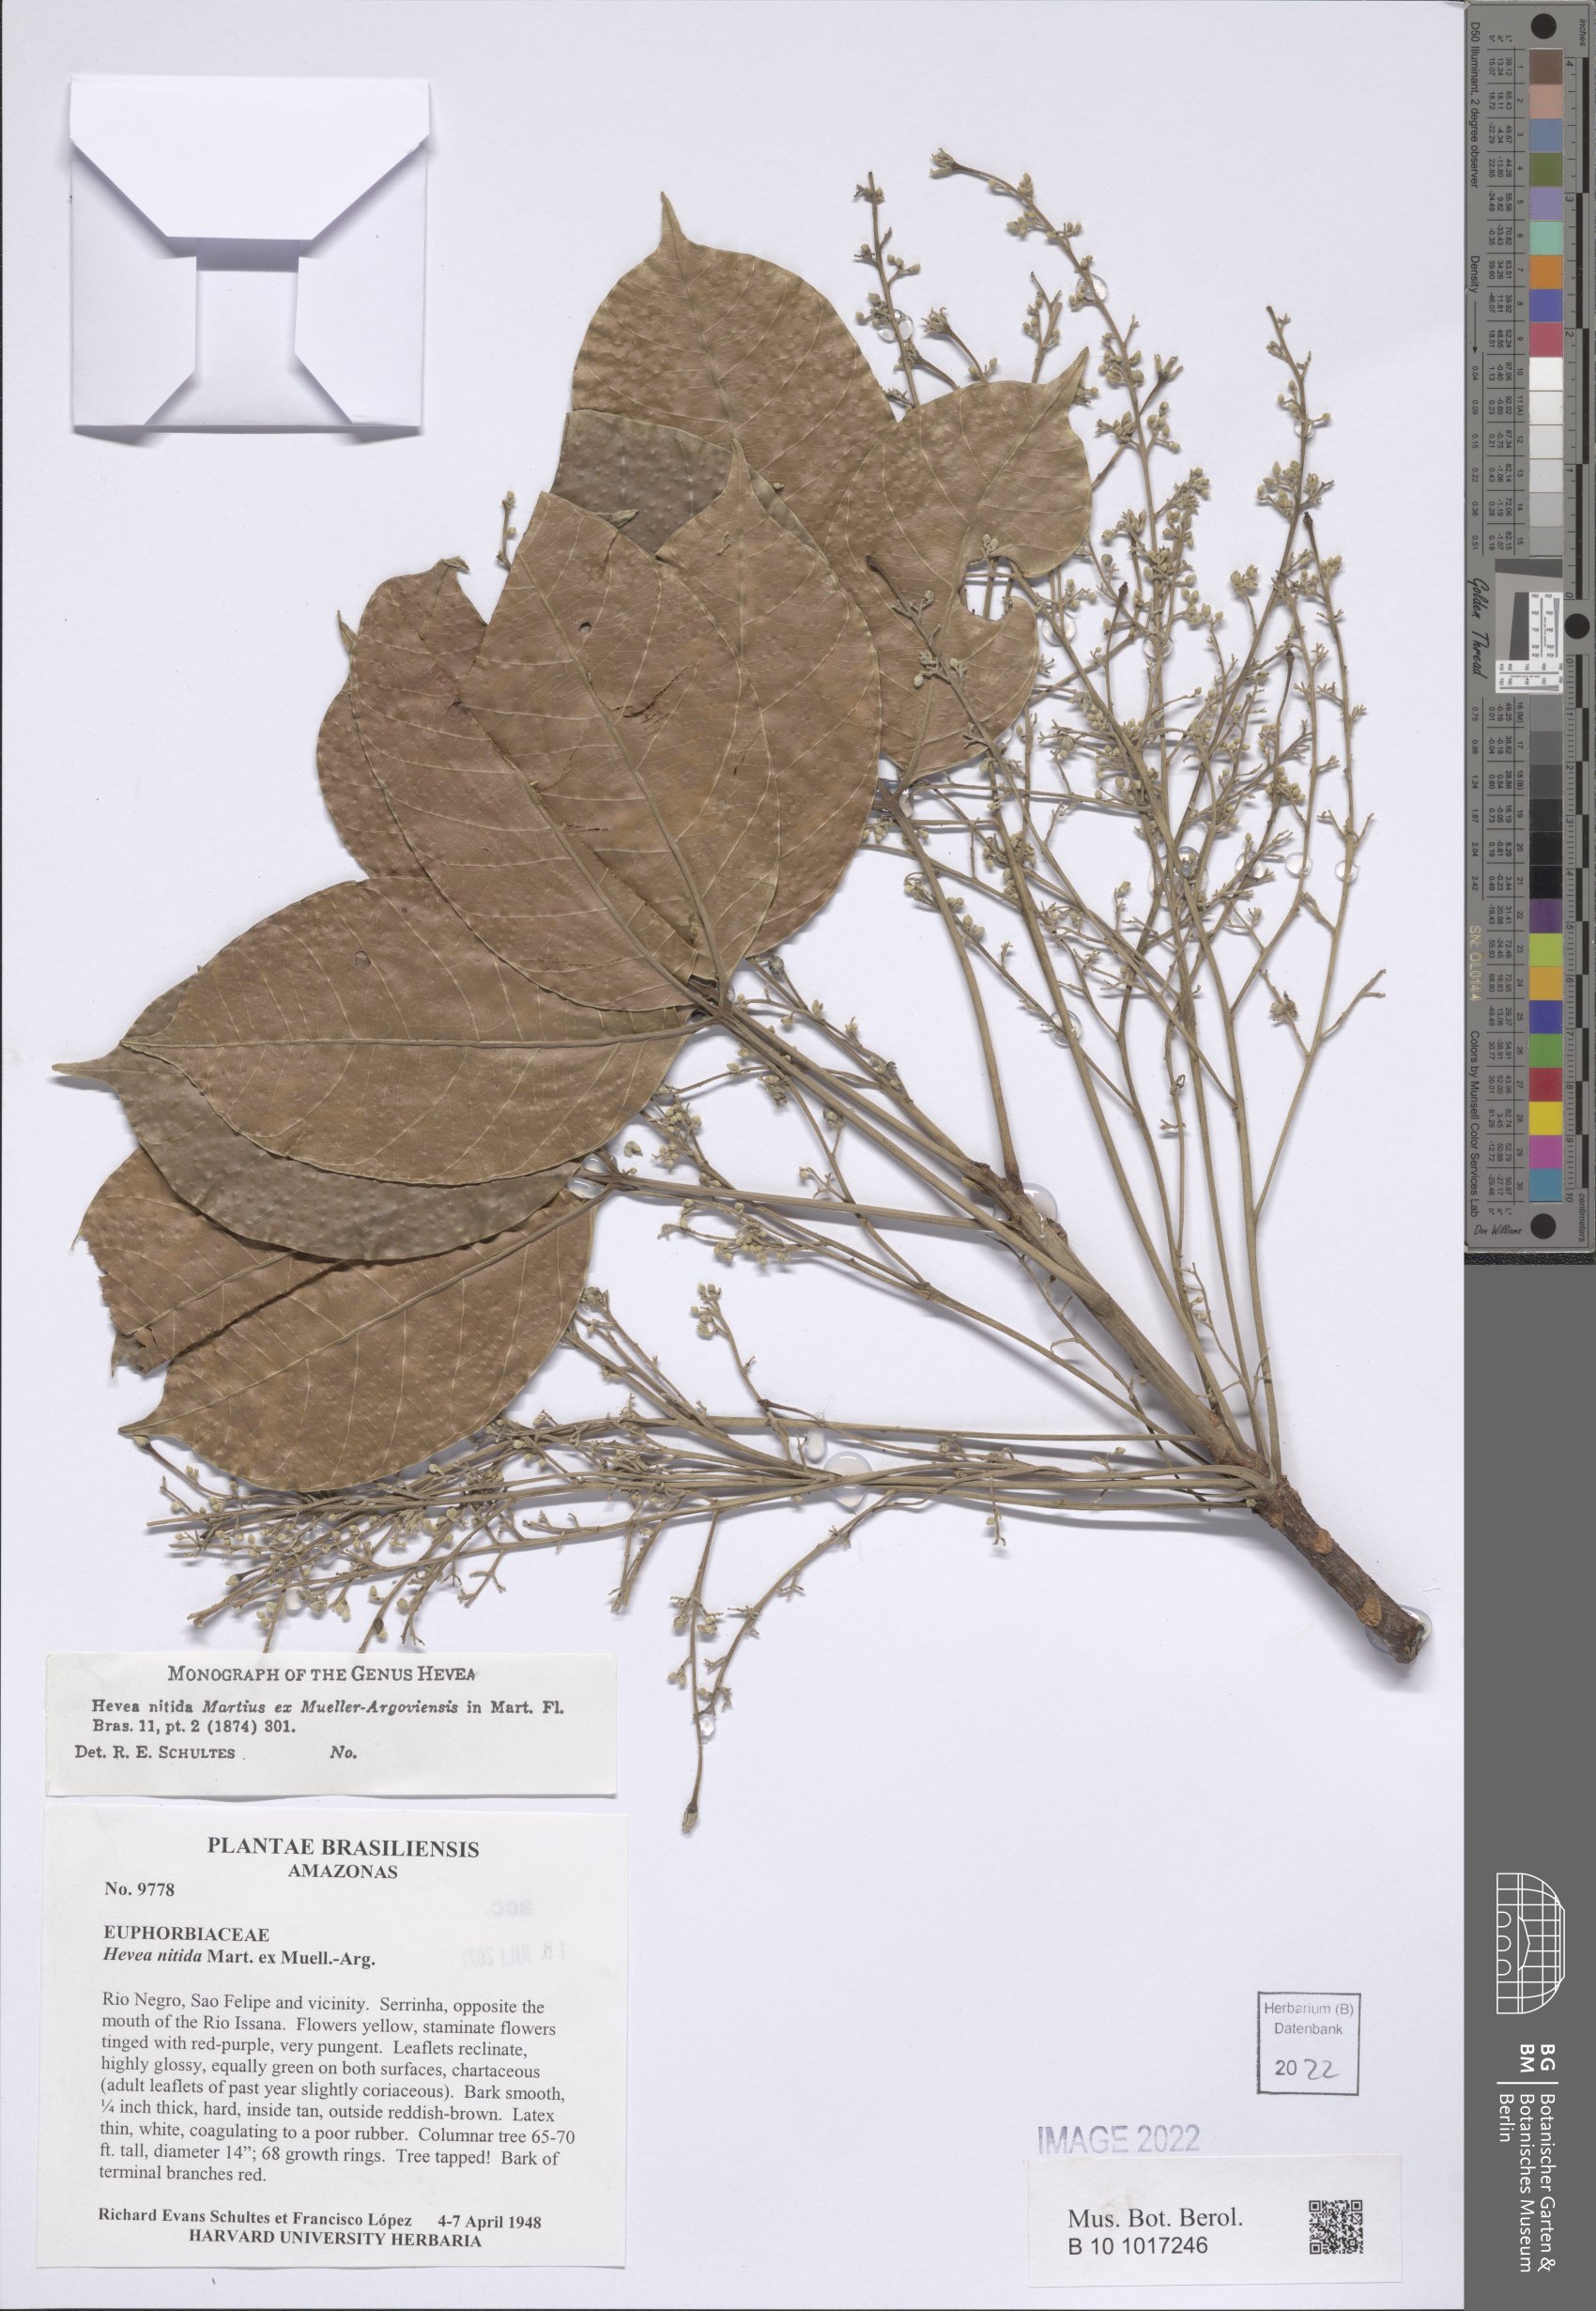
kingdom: Plantae
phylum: Tracheophyta
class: Magnoliopsida
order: Malpighiales
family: Euphorbiaceae
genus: Hevea
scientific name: Hevea nitida
